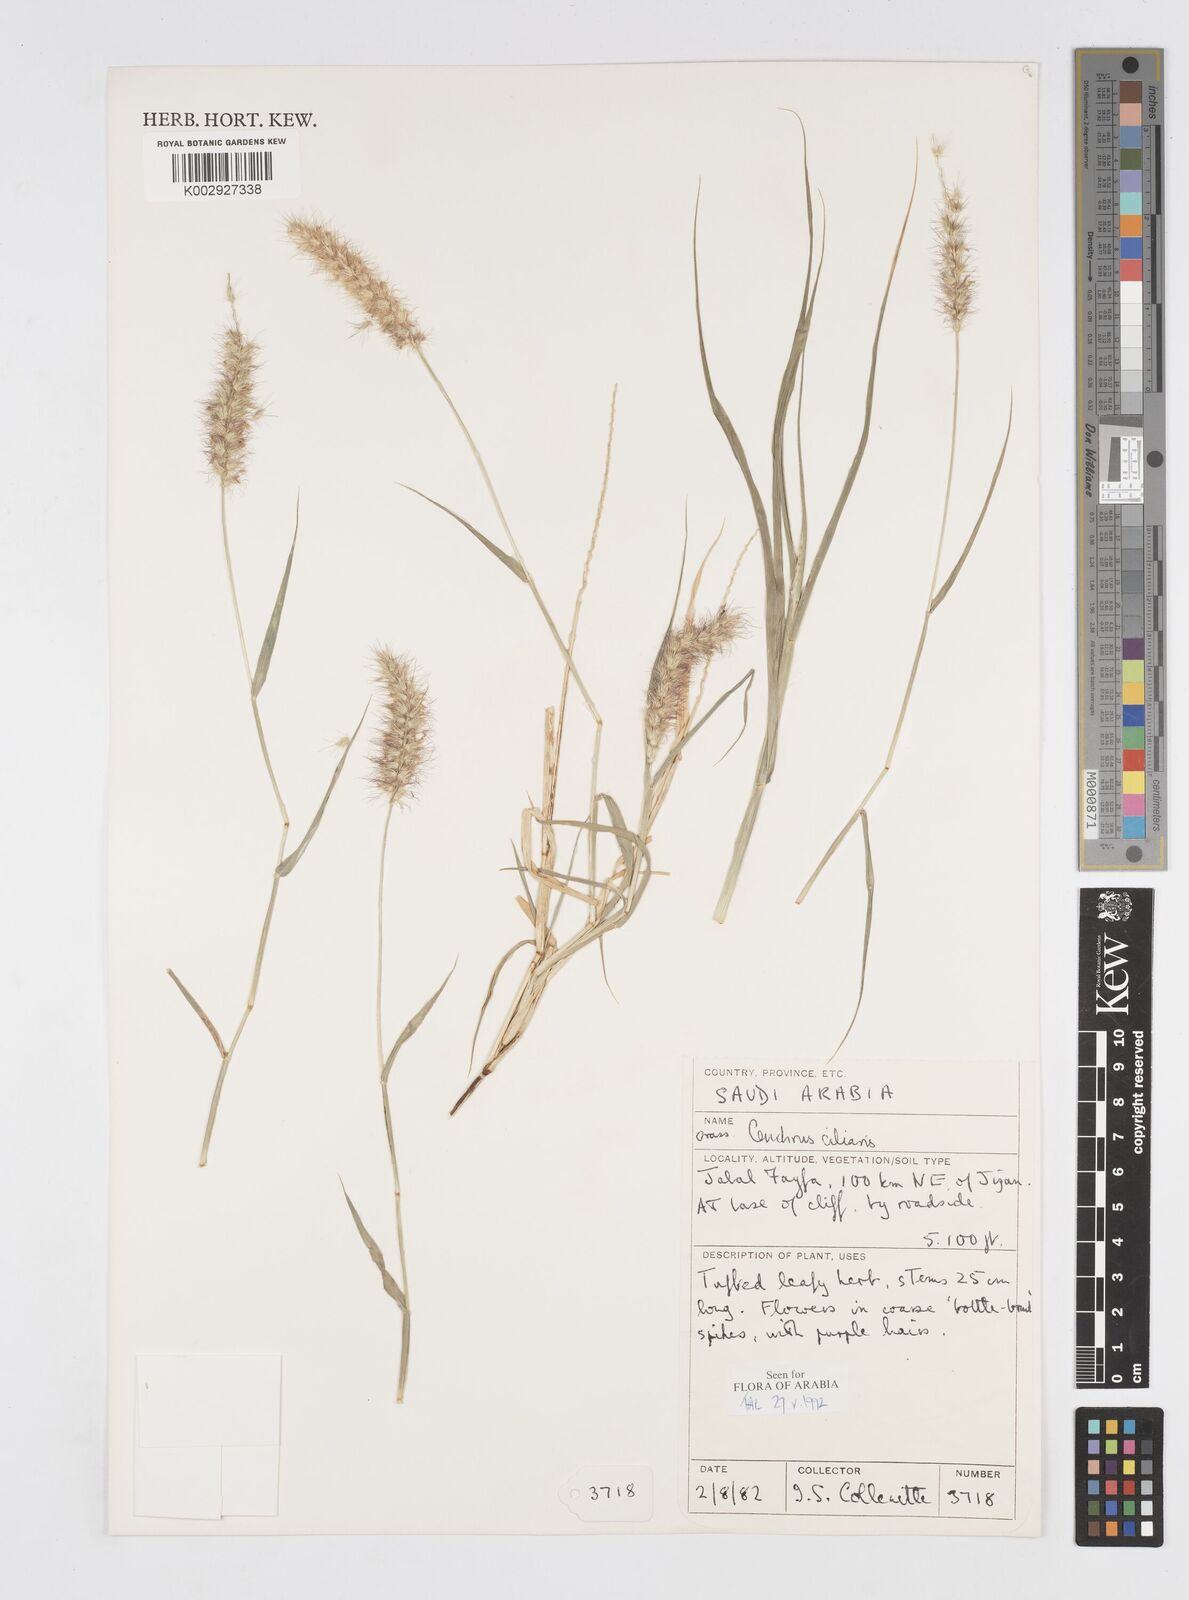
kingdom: Plantae
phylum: Tracheophyta
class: Liliopsida
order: Poales
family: Poaceae
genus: Cenchrus
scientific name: Cenchrus ciliaris
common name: Buffelgrass
